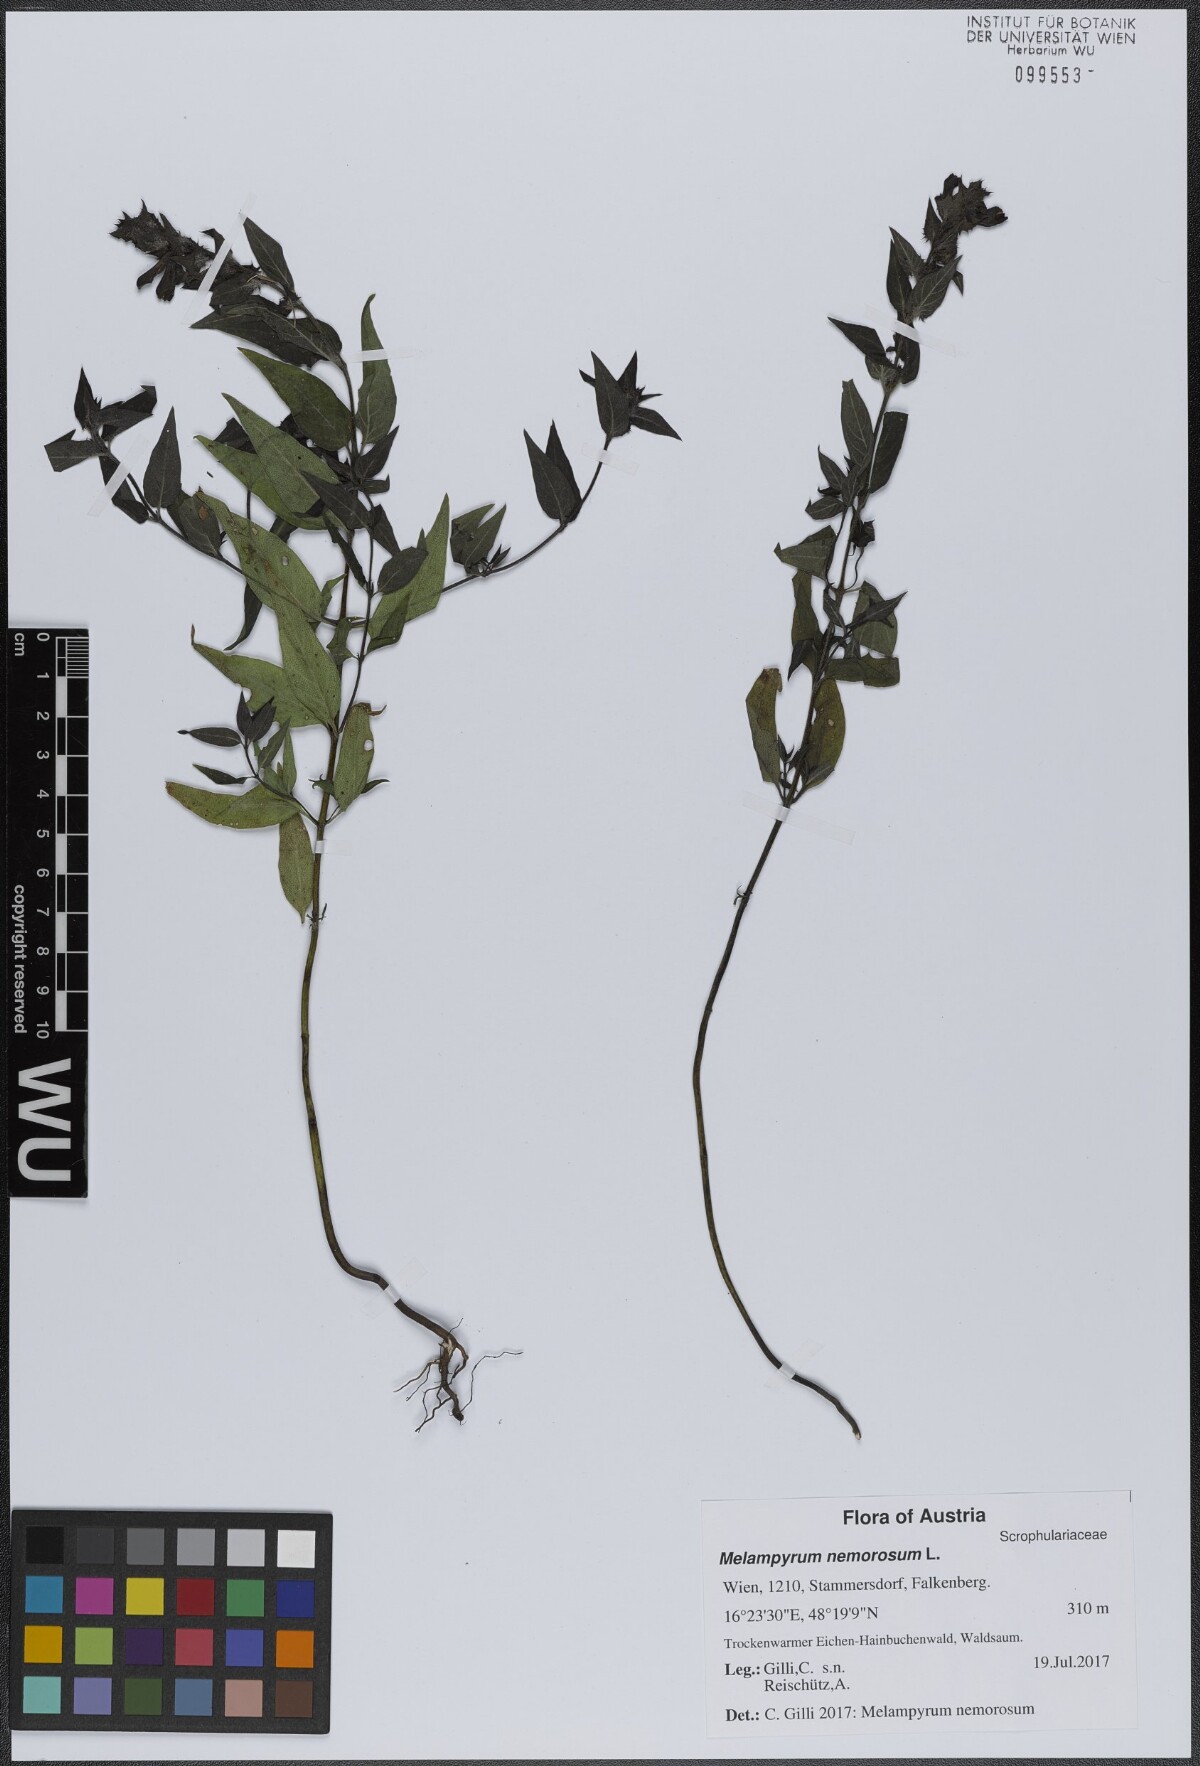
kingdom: Plantae
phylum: Tracheophyta
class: Magnoliopsida
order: Lamiales
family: Orobanchaceae
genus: Melampyrum
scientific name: Melampyrum nemorosum
